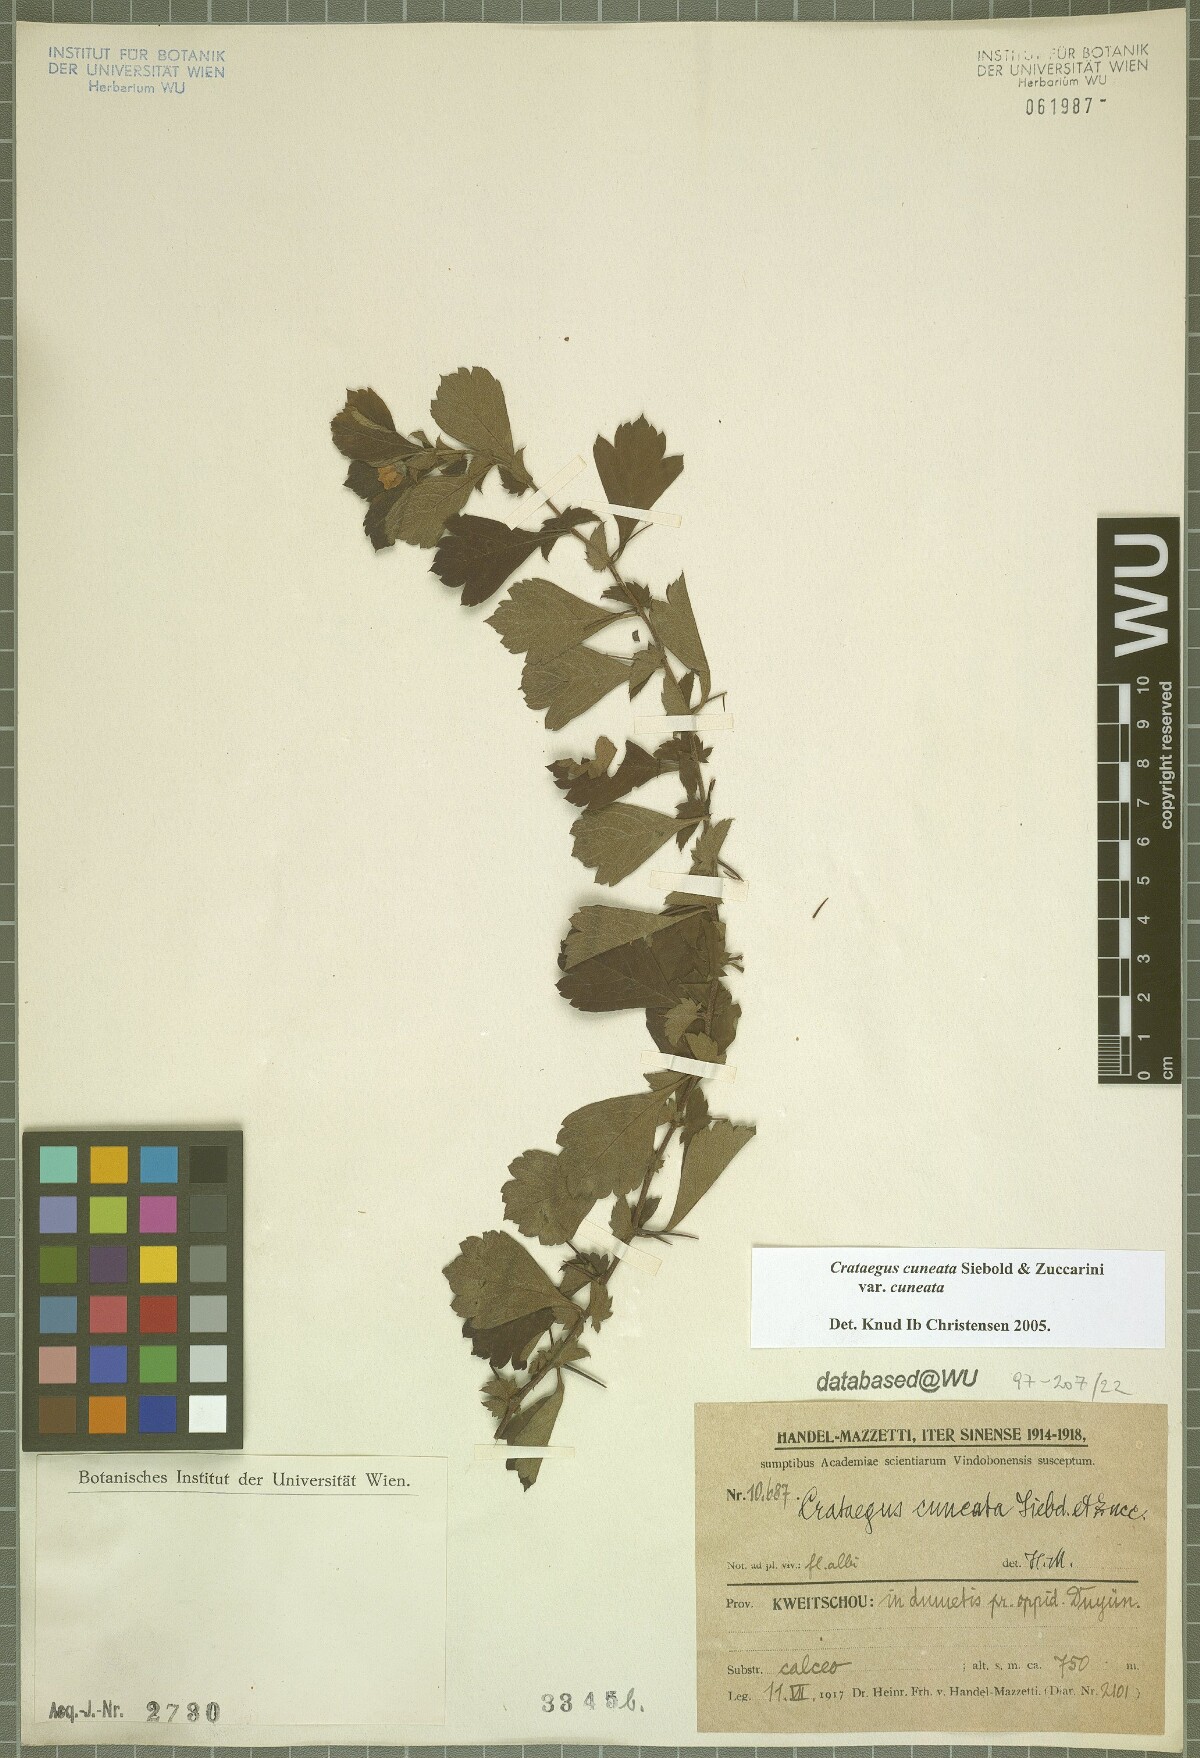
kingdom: Plantae
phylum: Tracheophyta
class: Magnoliopsida
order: Rosales
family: Rosaceae
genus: Crataegus
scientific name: Crataegus cuneata
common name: Chinese hawthorn
